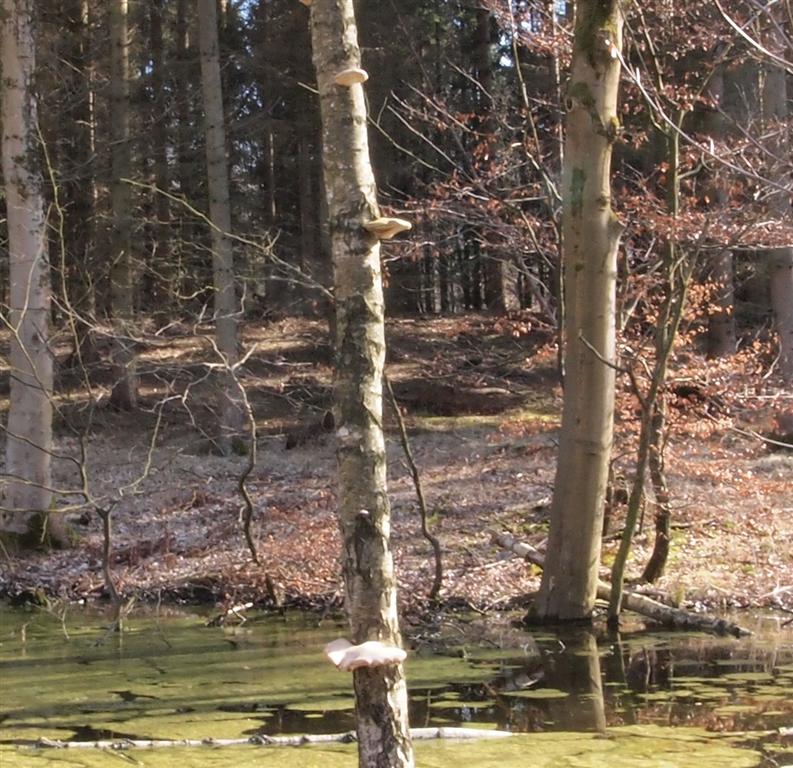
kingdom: Fungi
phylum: Basidiomycota
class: Agaricomycetes
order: Polyporales
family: Fomitopsidaceae
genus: Fomitopsis
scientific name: Fomitopsis betulina
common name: birkeporesvamp
